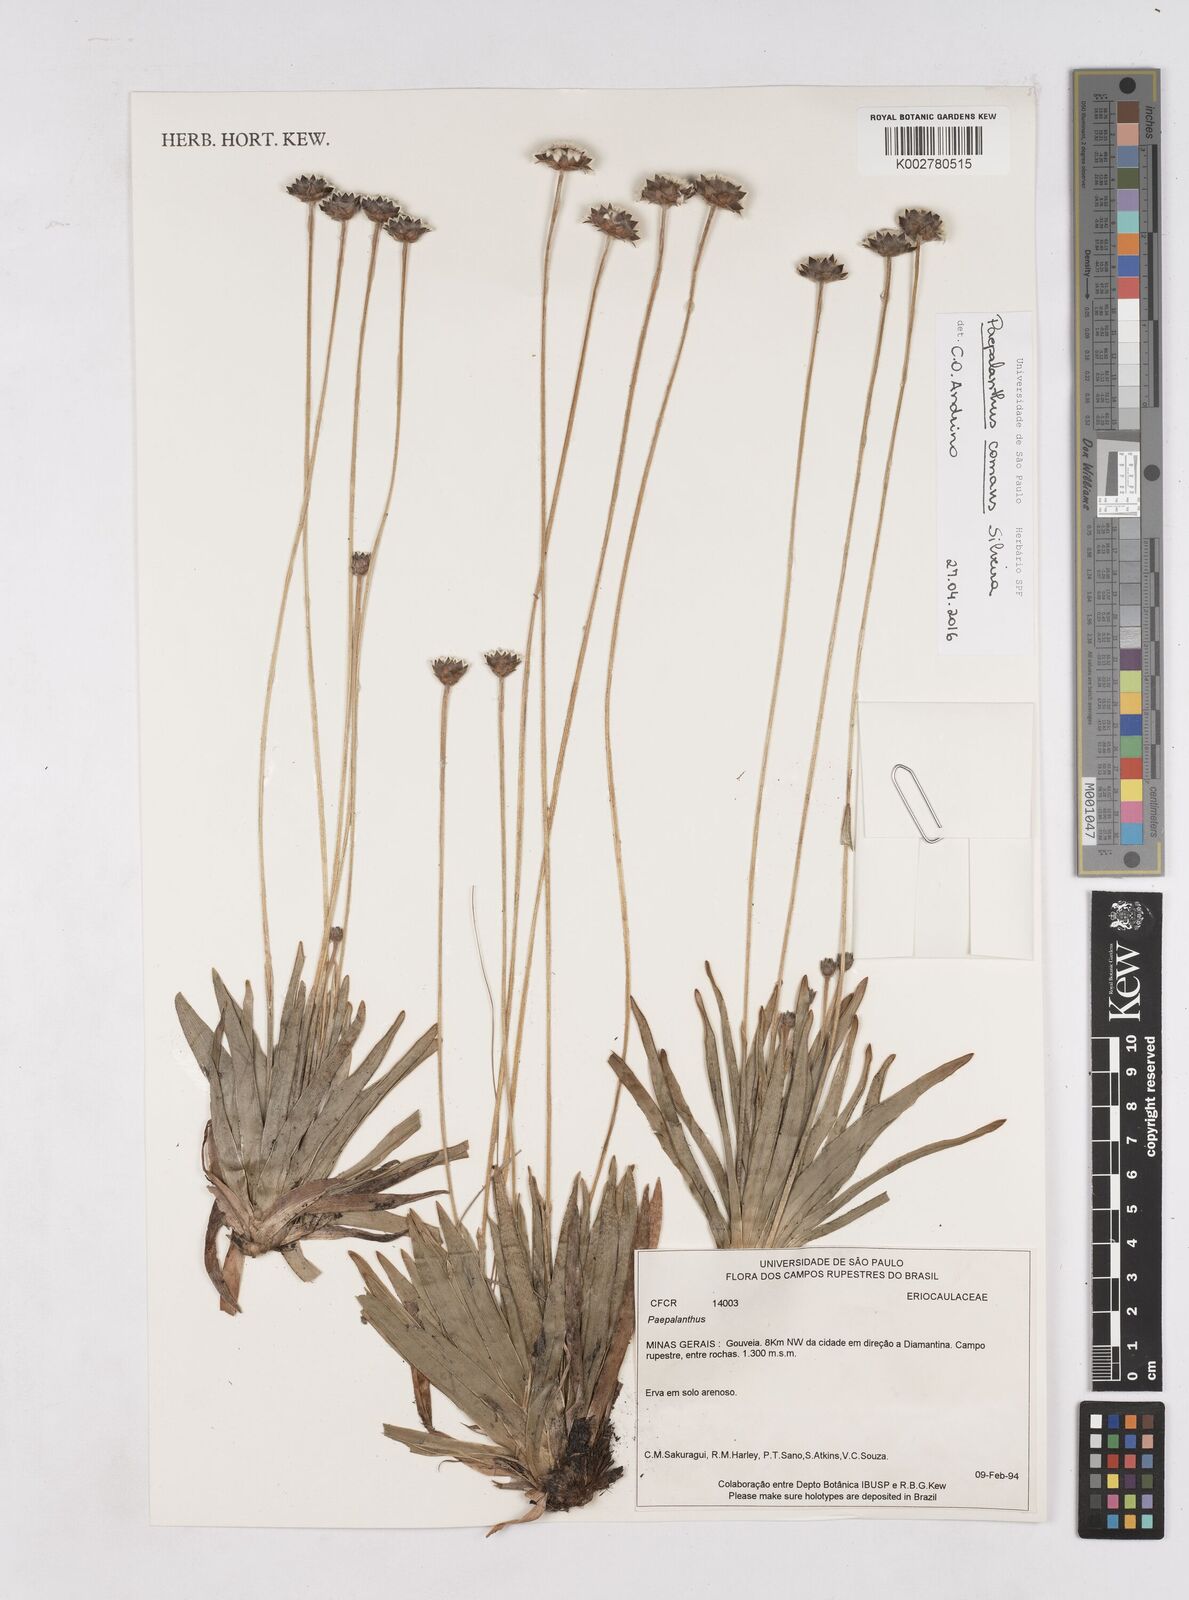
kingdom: Plantae
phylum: Tracheophyta
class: Liliopsida
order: Poales
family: Eriocaulaceae
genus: Paepalanthus
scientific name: Paepalanthus comans
